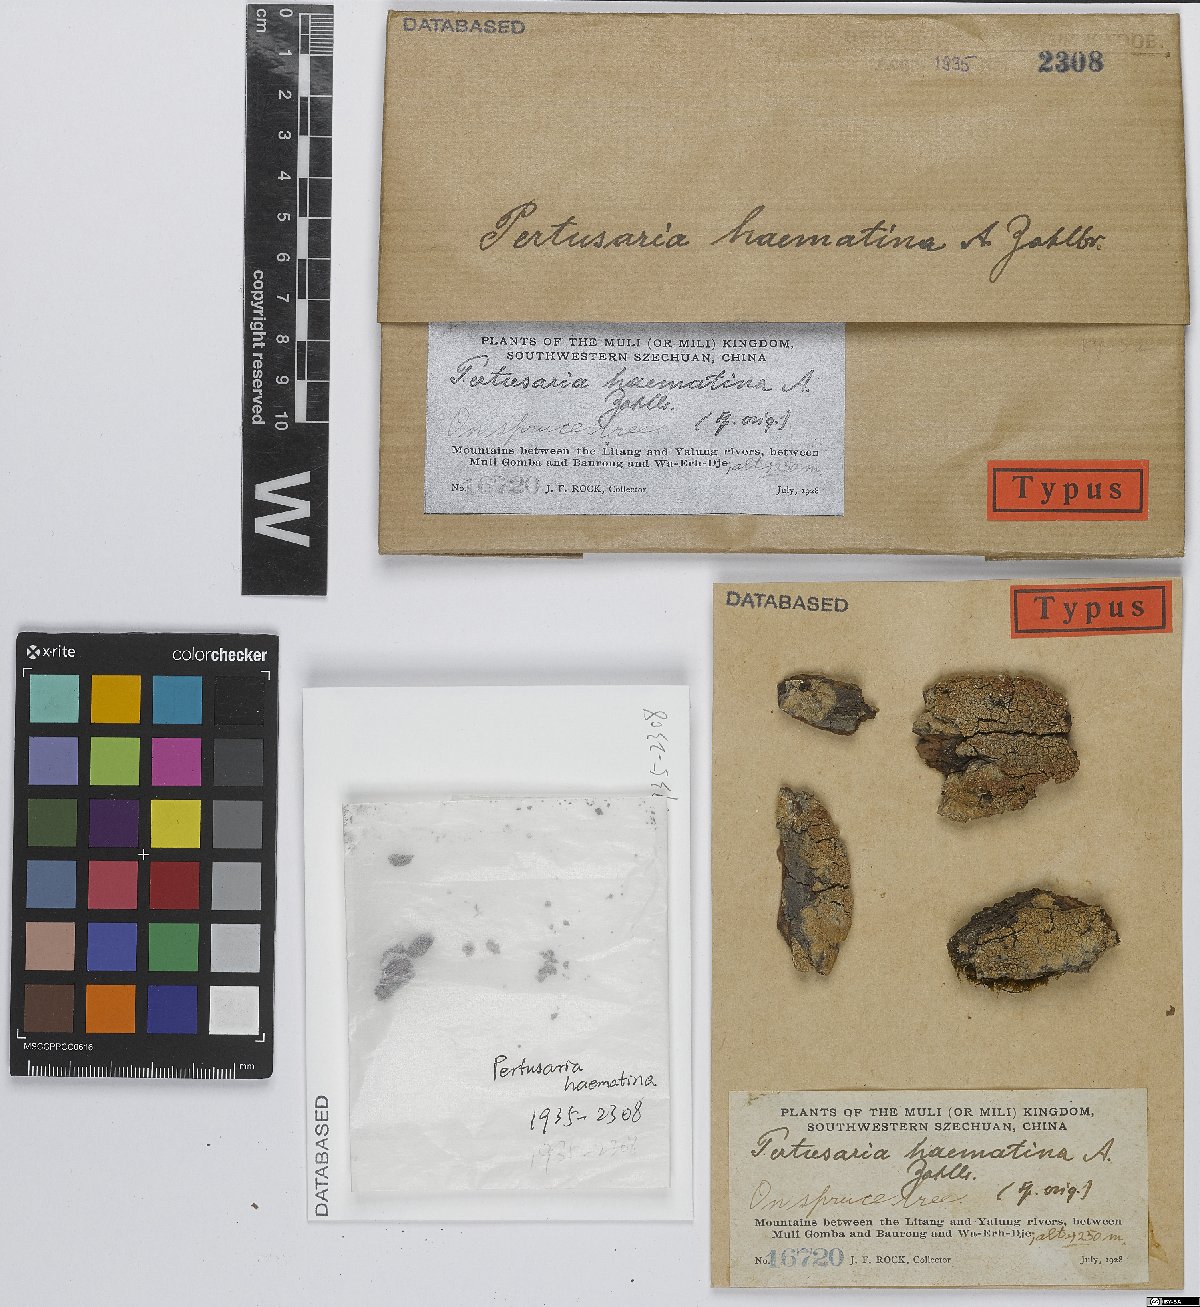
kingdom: Fungi
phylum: Ascomycota
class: Lecanoromycetes
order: Pertusariales
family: Pertusariaceae
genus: Pertusaria
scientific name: Pertusaria
